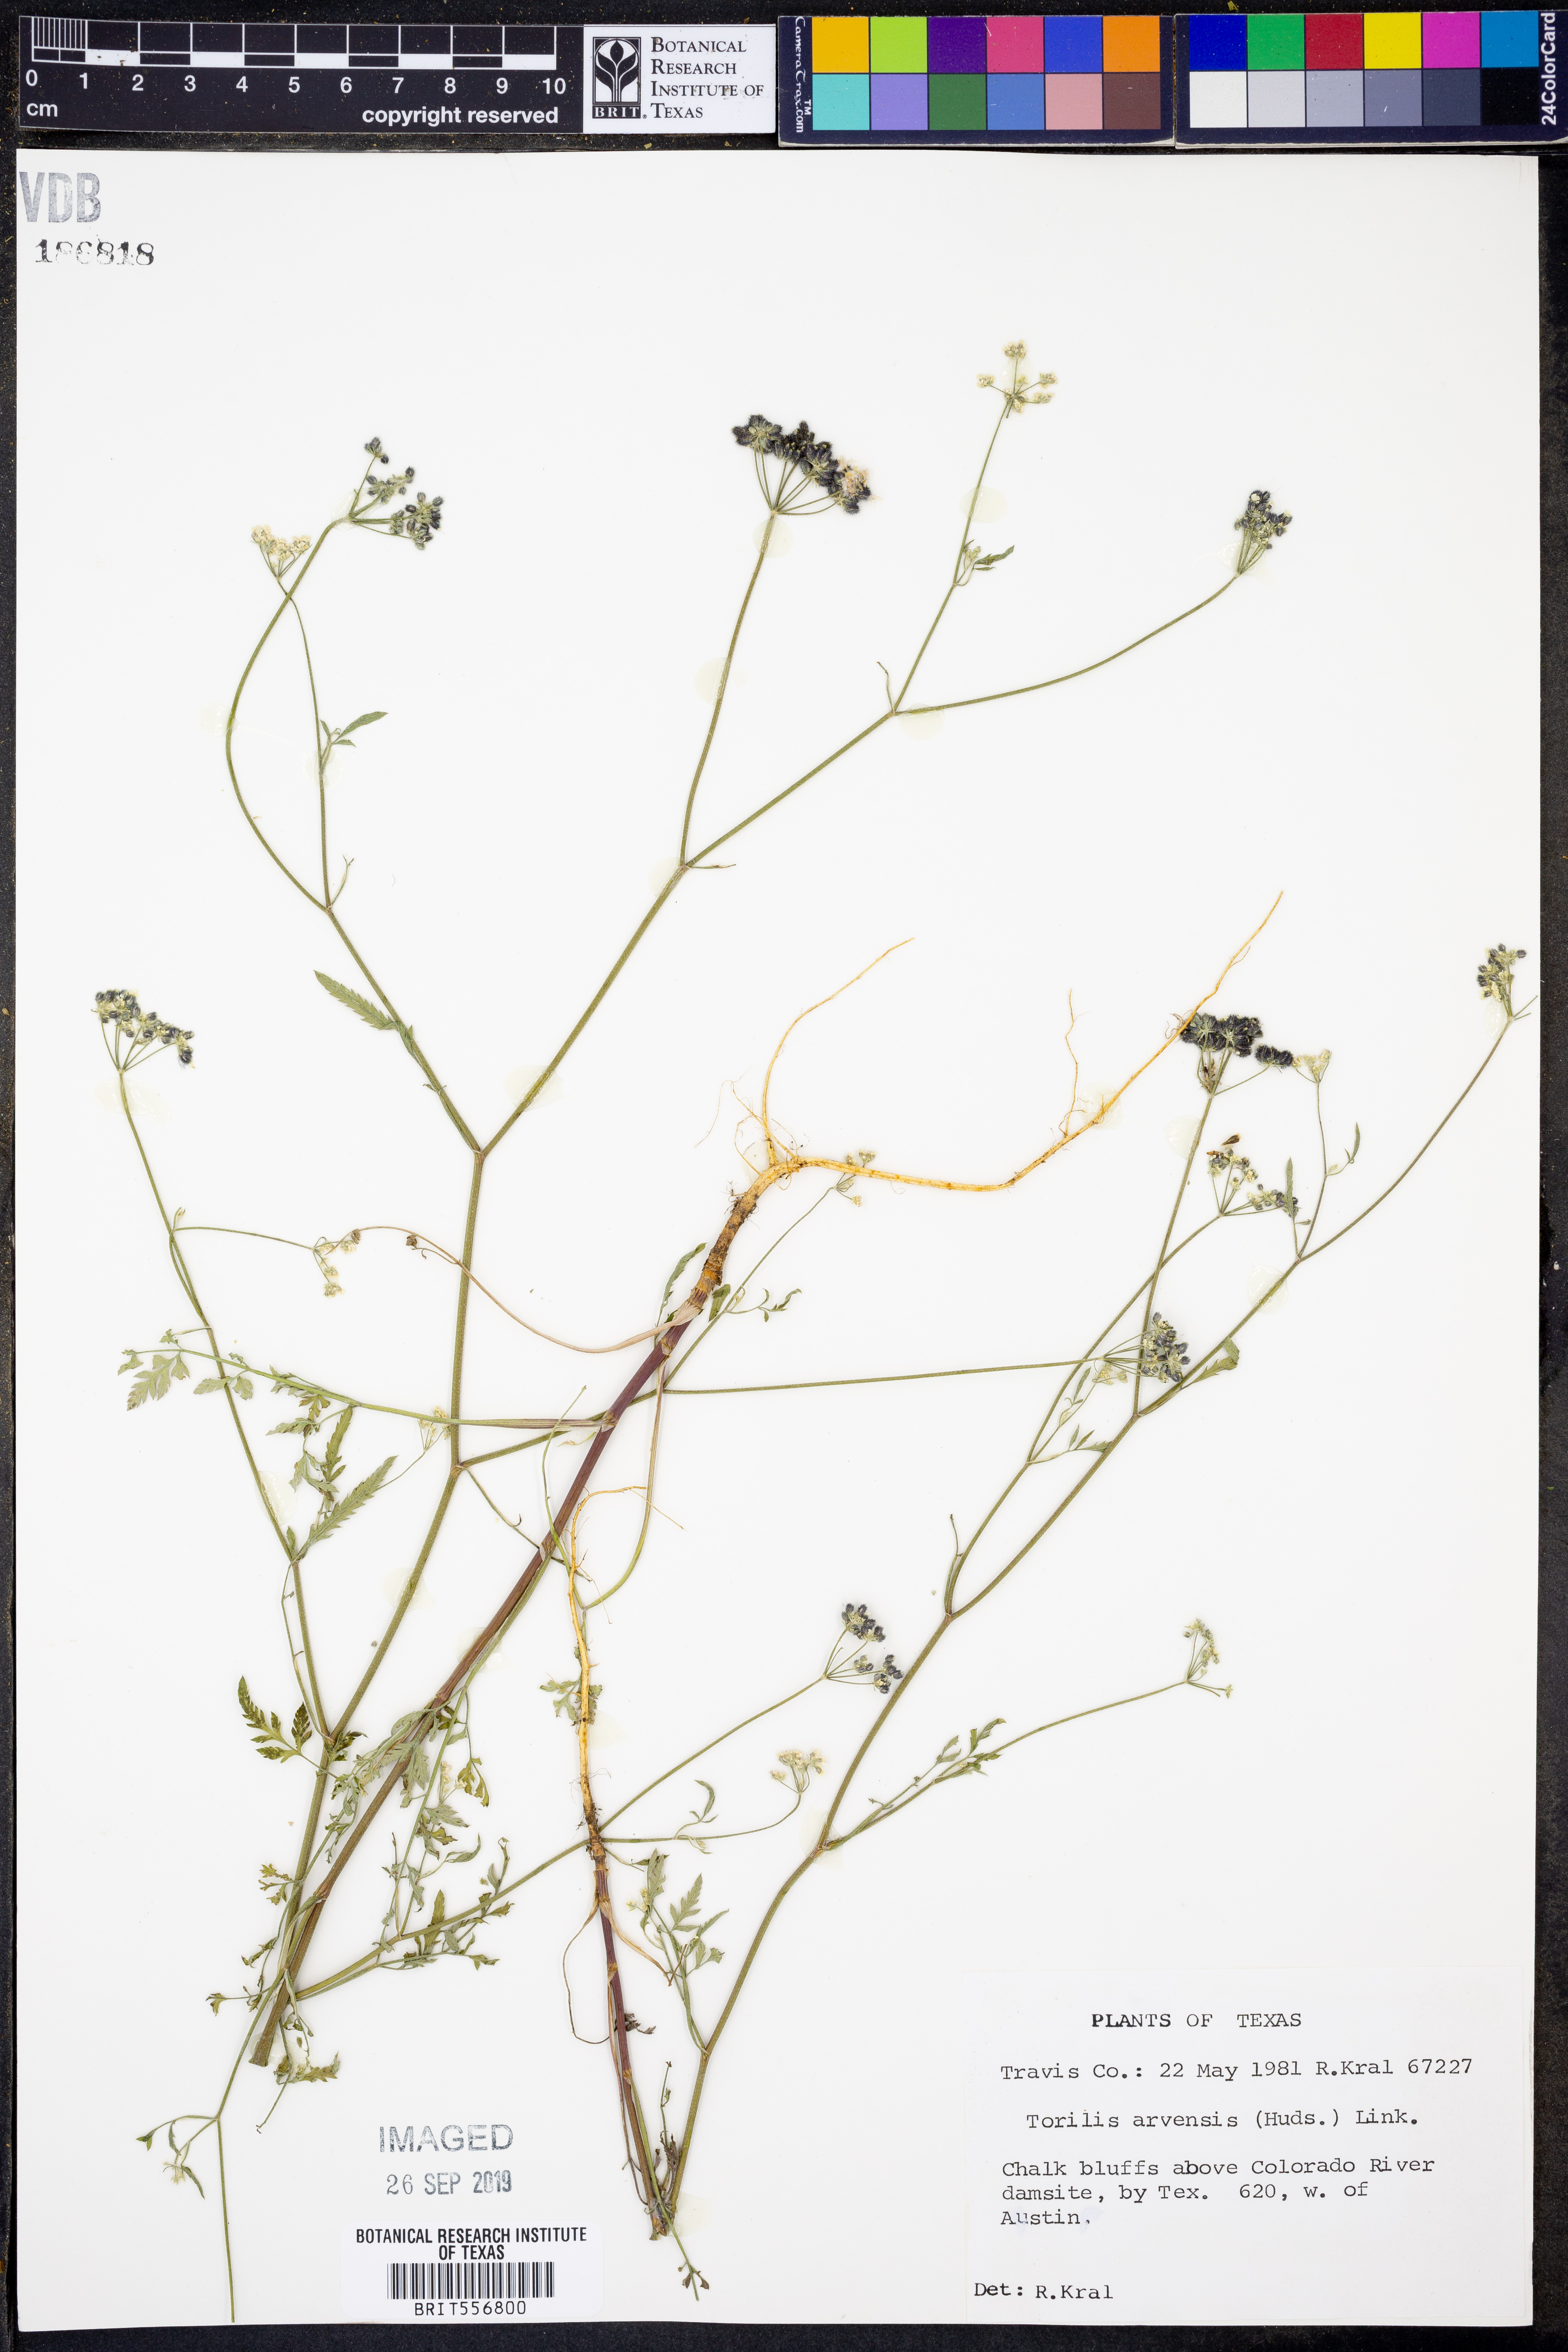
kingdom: Plantae
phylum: Tracheophyta
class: Magnoliopsida
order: Apiales
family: Apiaceae
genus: Torilis
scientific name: Torilis arvensis
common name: Spreading hedge-parsley
